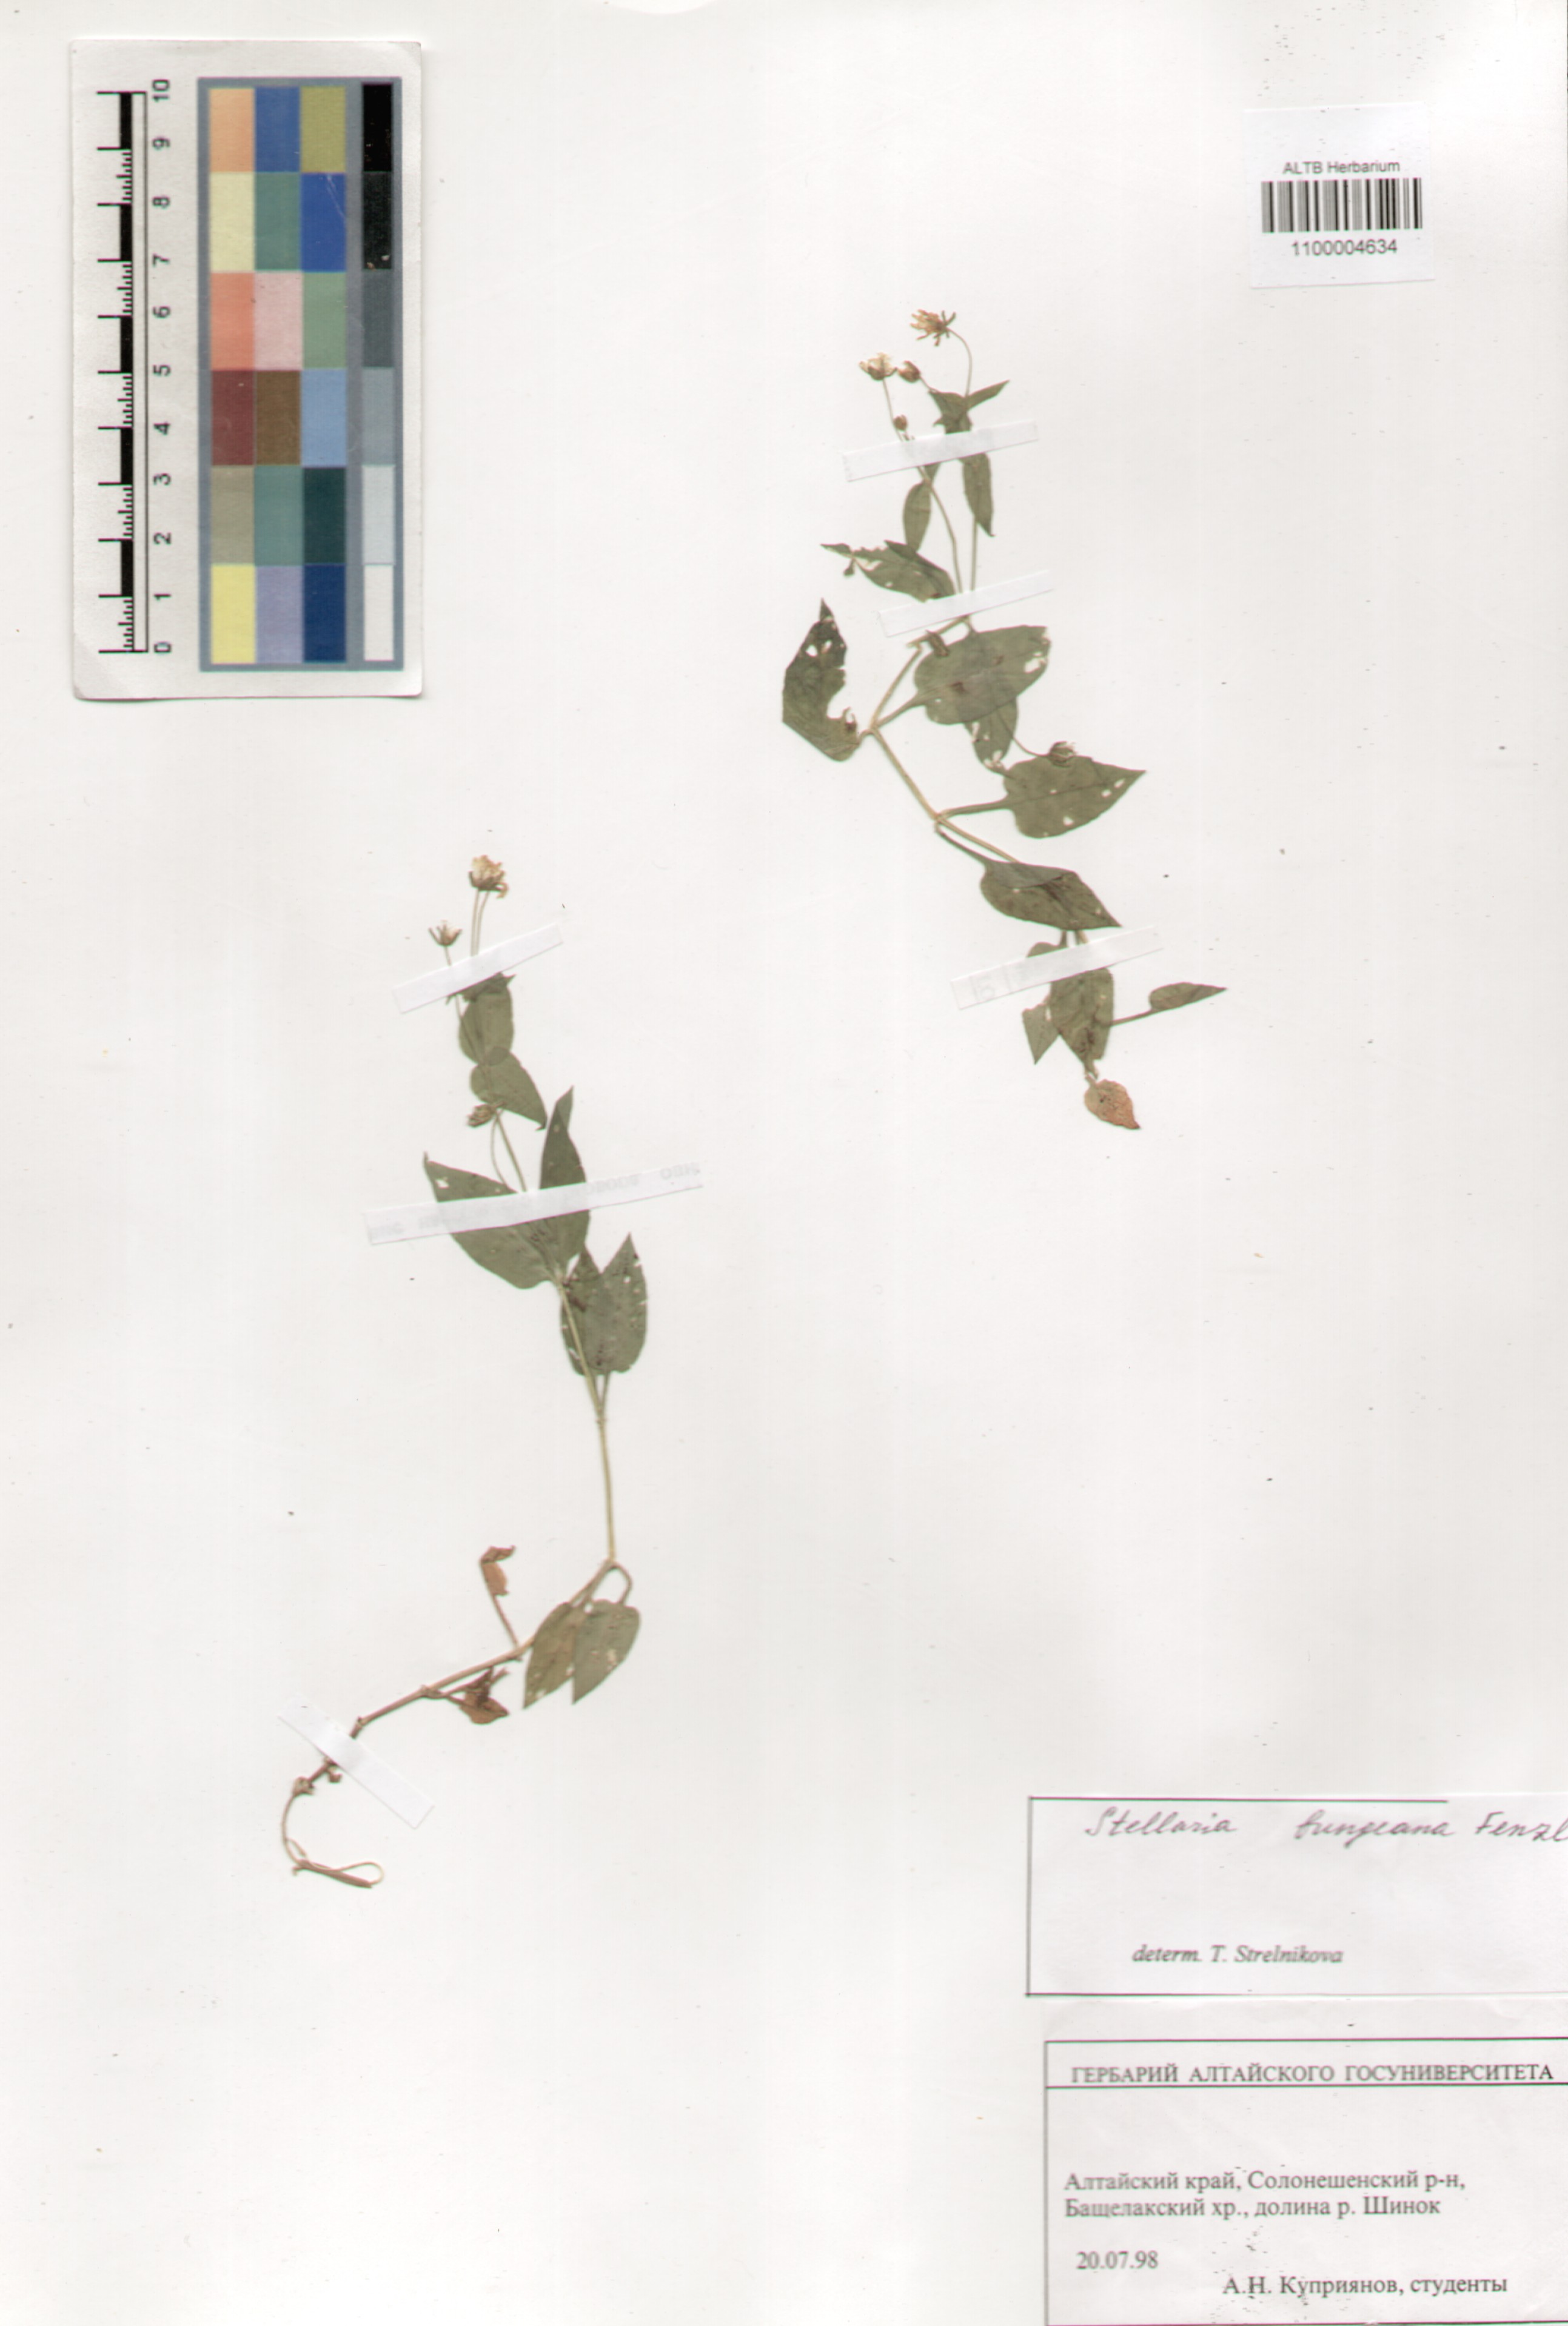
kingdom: Plantae
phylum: Tracheophyta
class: Magnoliopsida
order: Caryophyllales
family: Caryophyllaceae
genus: Stellaria
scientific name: Stellaria bungeana
